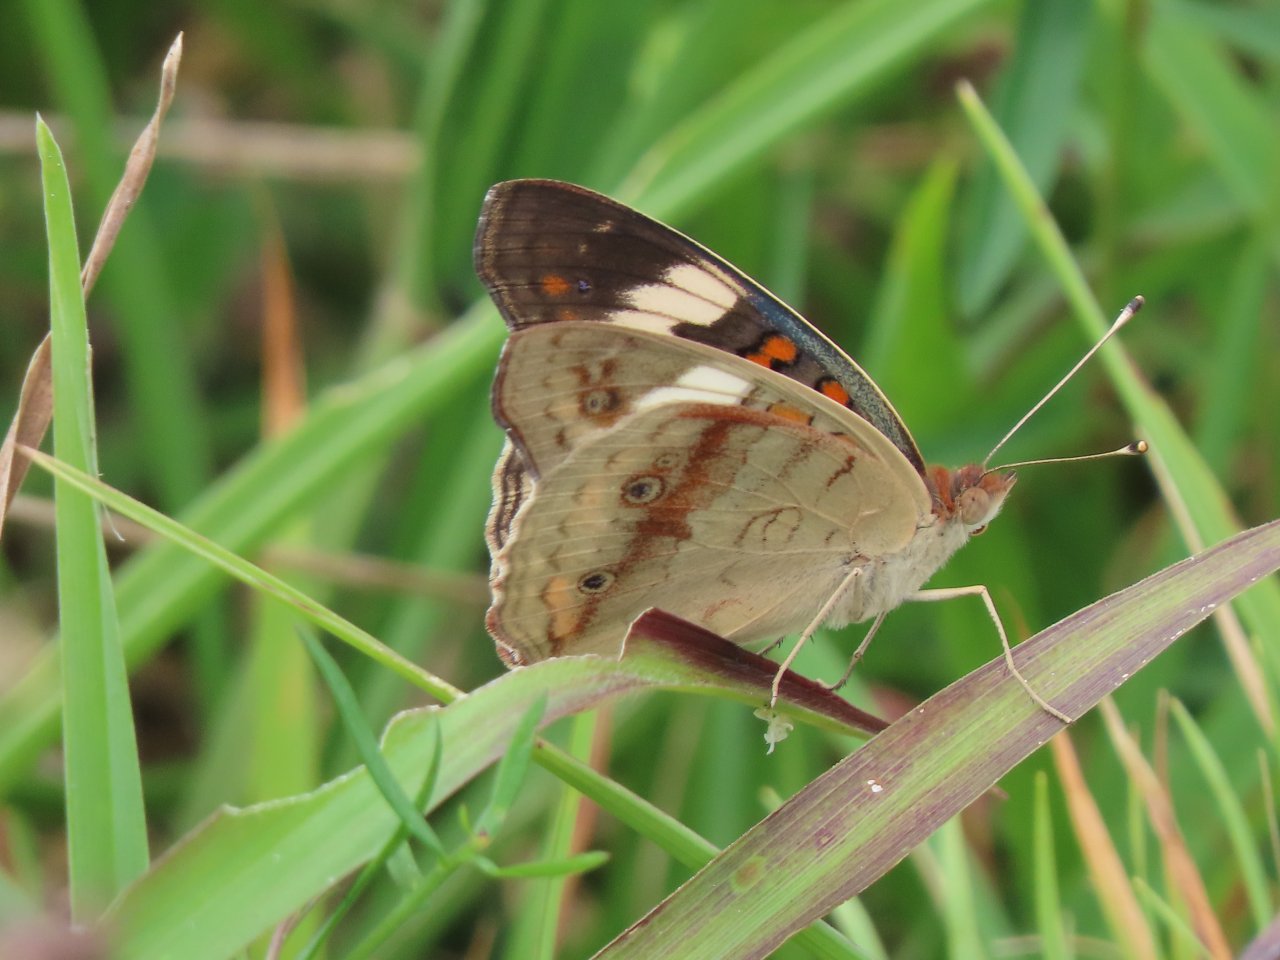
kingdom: Animalia
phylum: Arthropoda
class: Insecta
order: Lepidoptera
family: Nymphalidae
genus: Junonia
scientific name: Junonia coenia
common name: Common Buckeye
